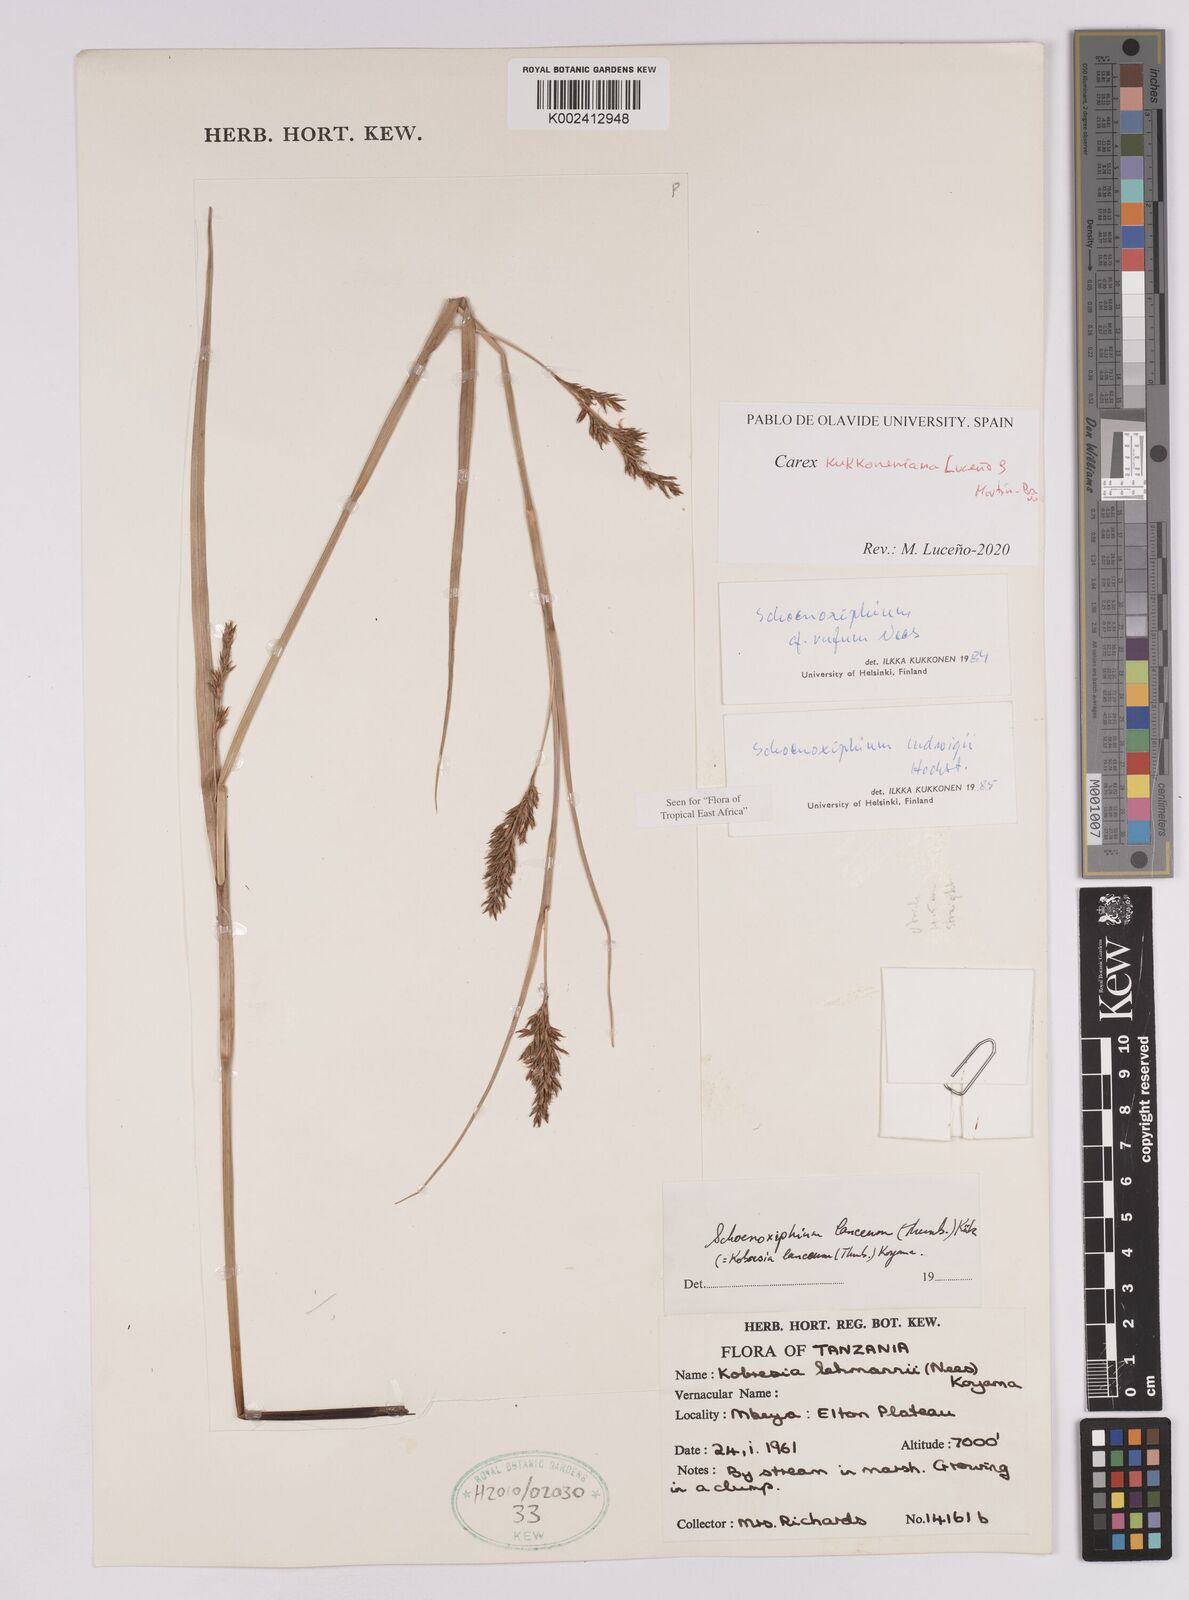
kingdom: Plantae
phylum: Tracheophyta
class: Liliopsida
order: Poales
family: Cyperaceae
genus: Carex
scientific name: Carex kukkoneniana
